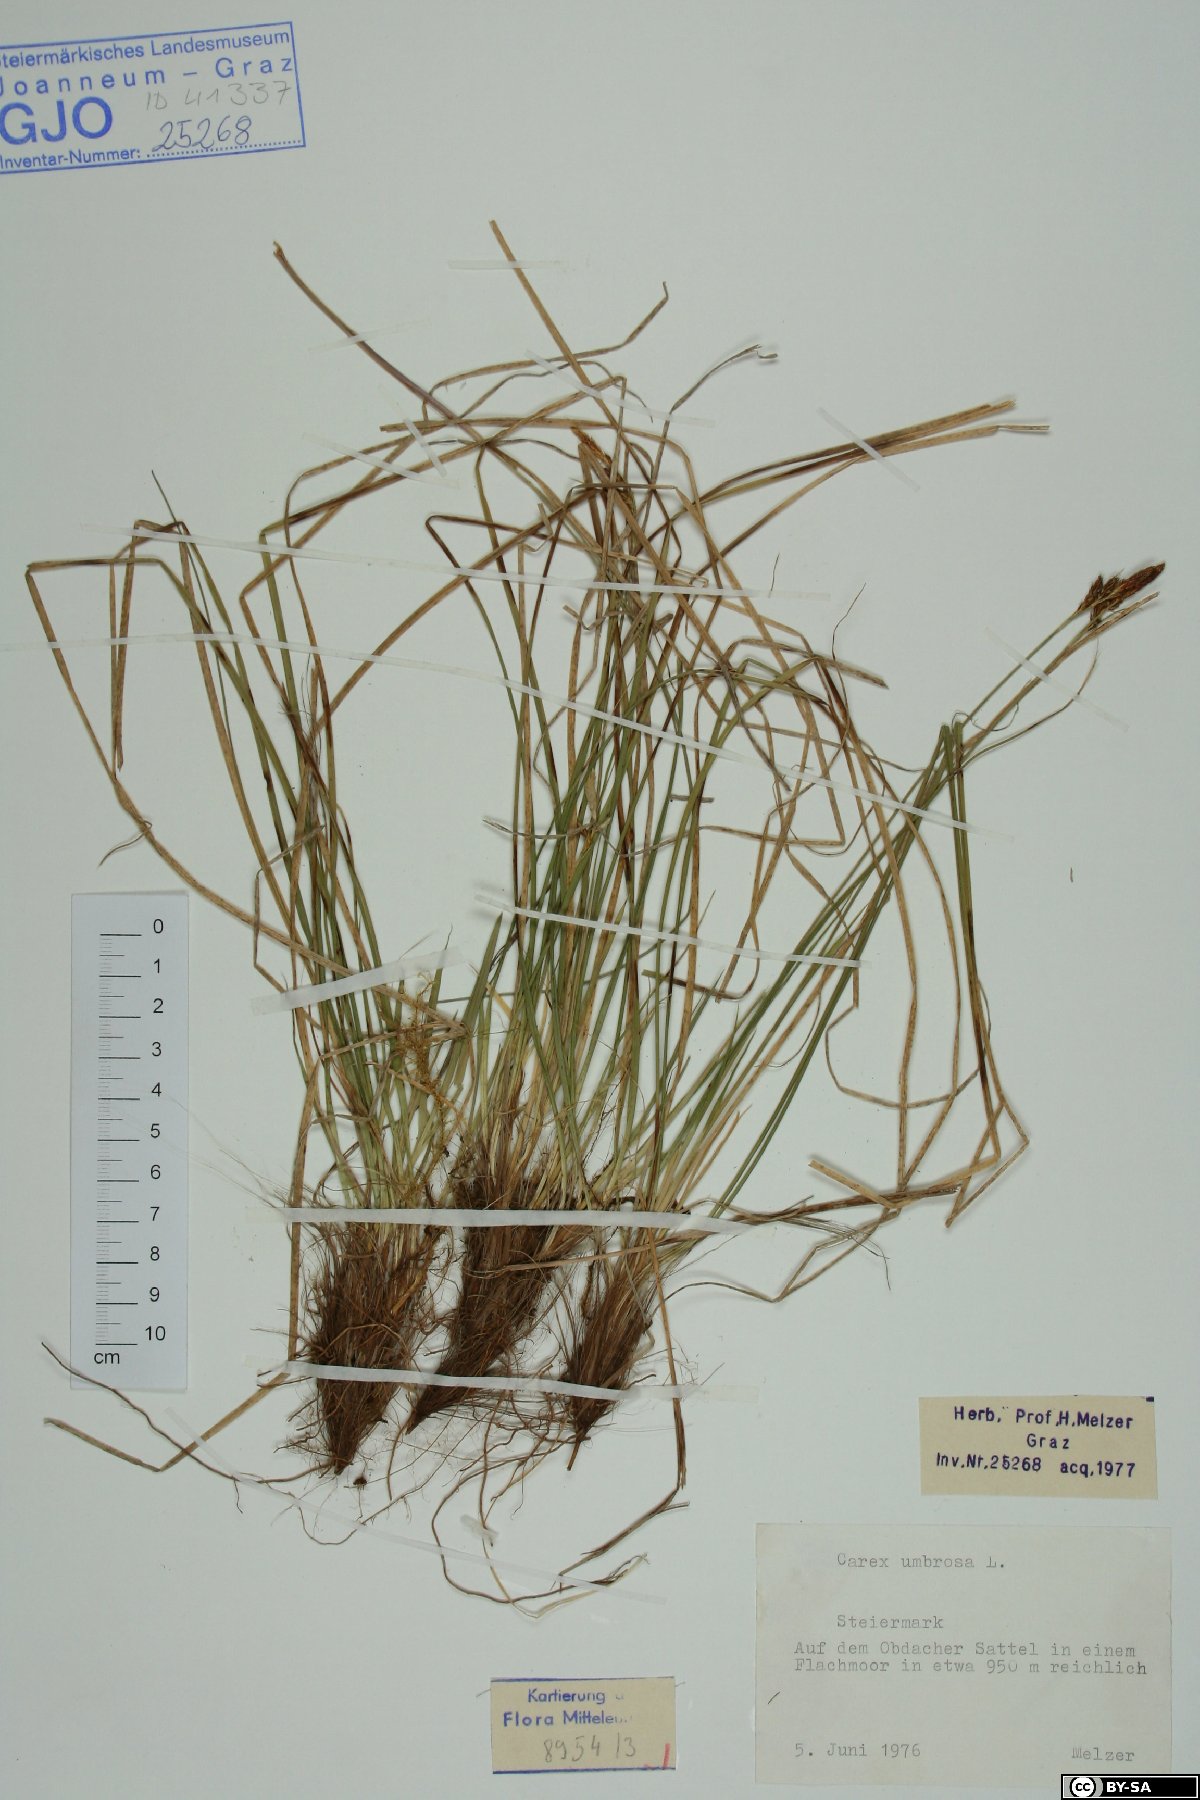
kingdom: Plantae
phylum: Tracheophyta
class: Liliopsida
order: Poales
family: Cyperaceae
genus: Carex
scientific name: Carex umbrosa
